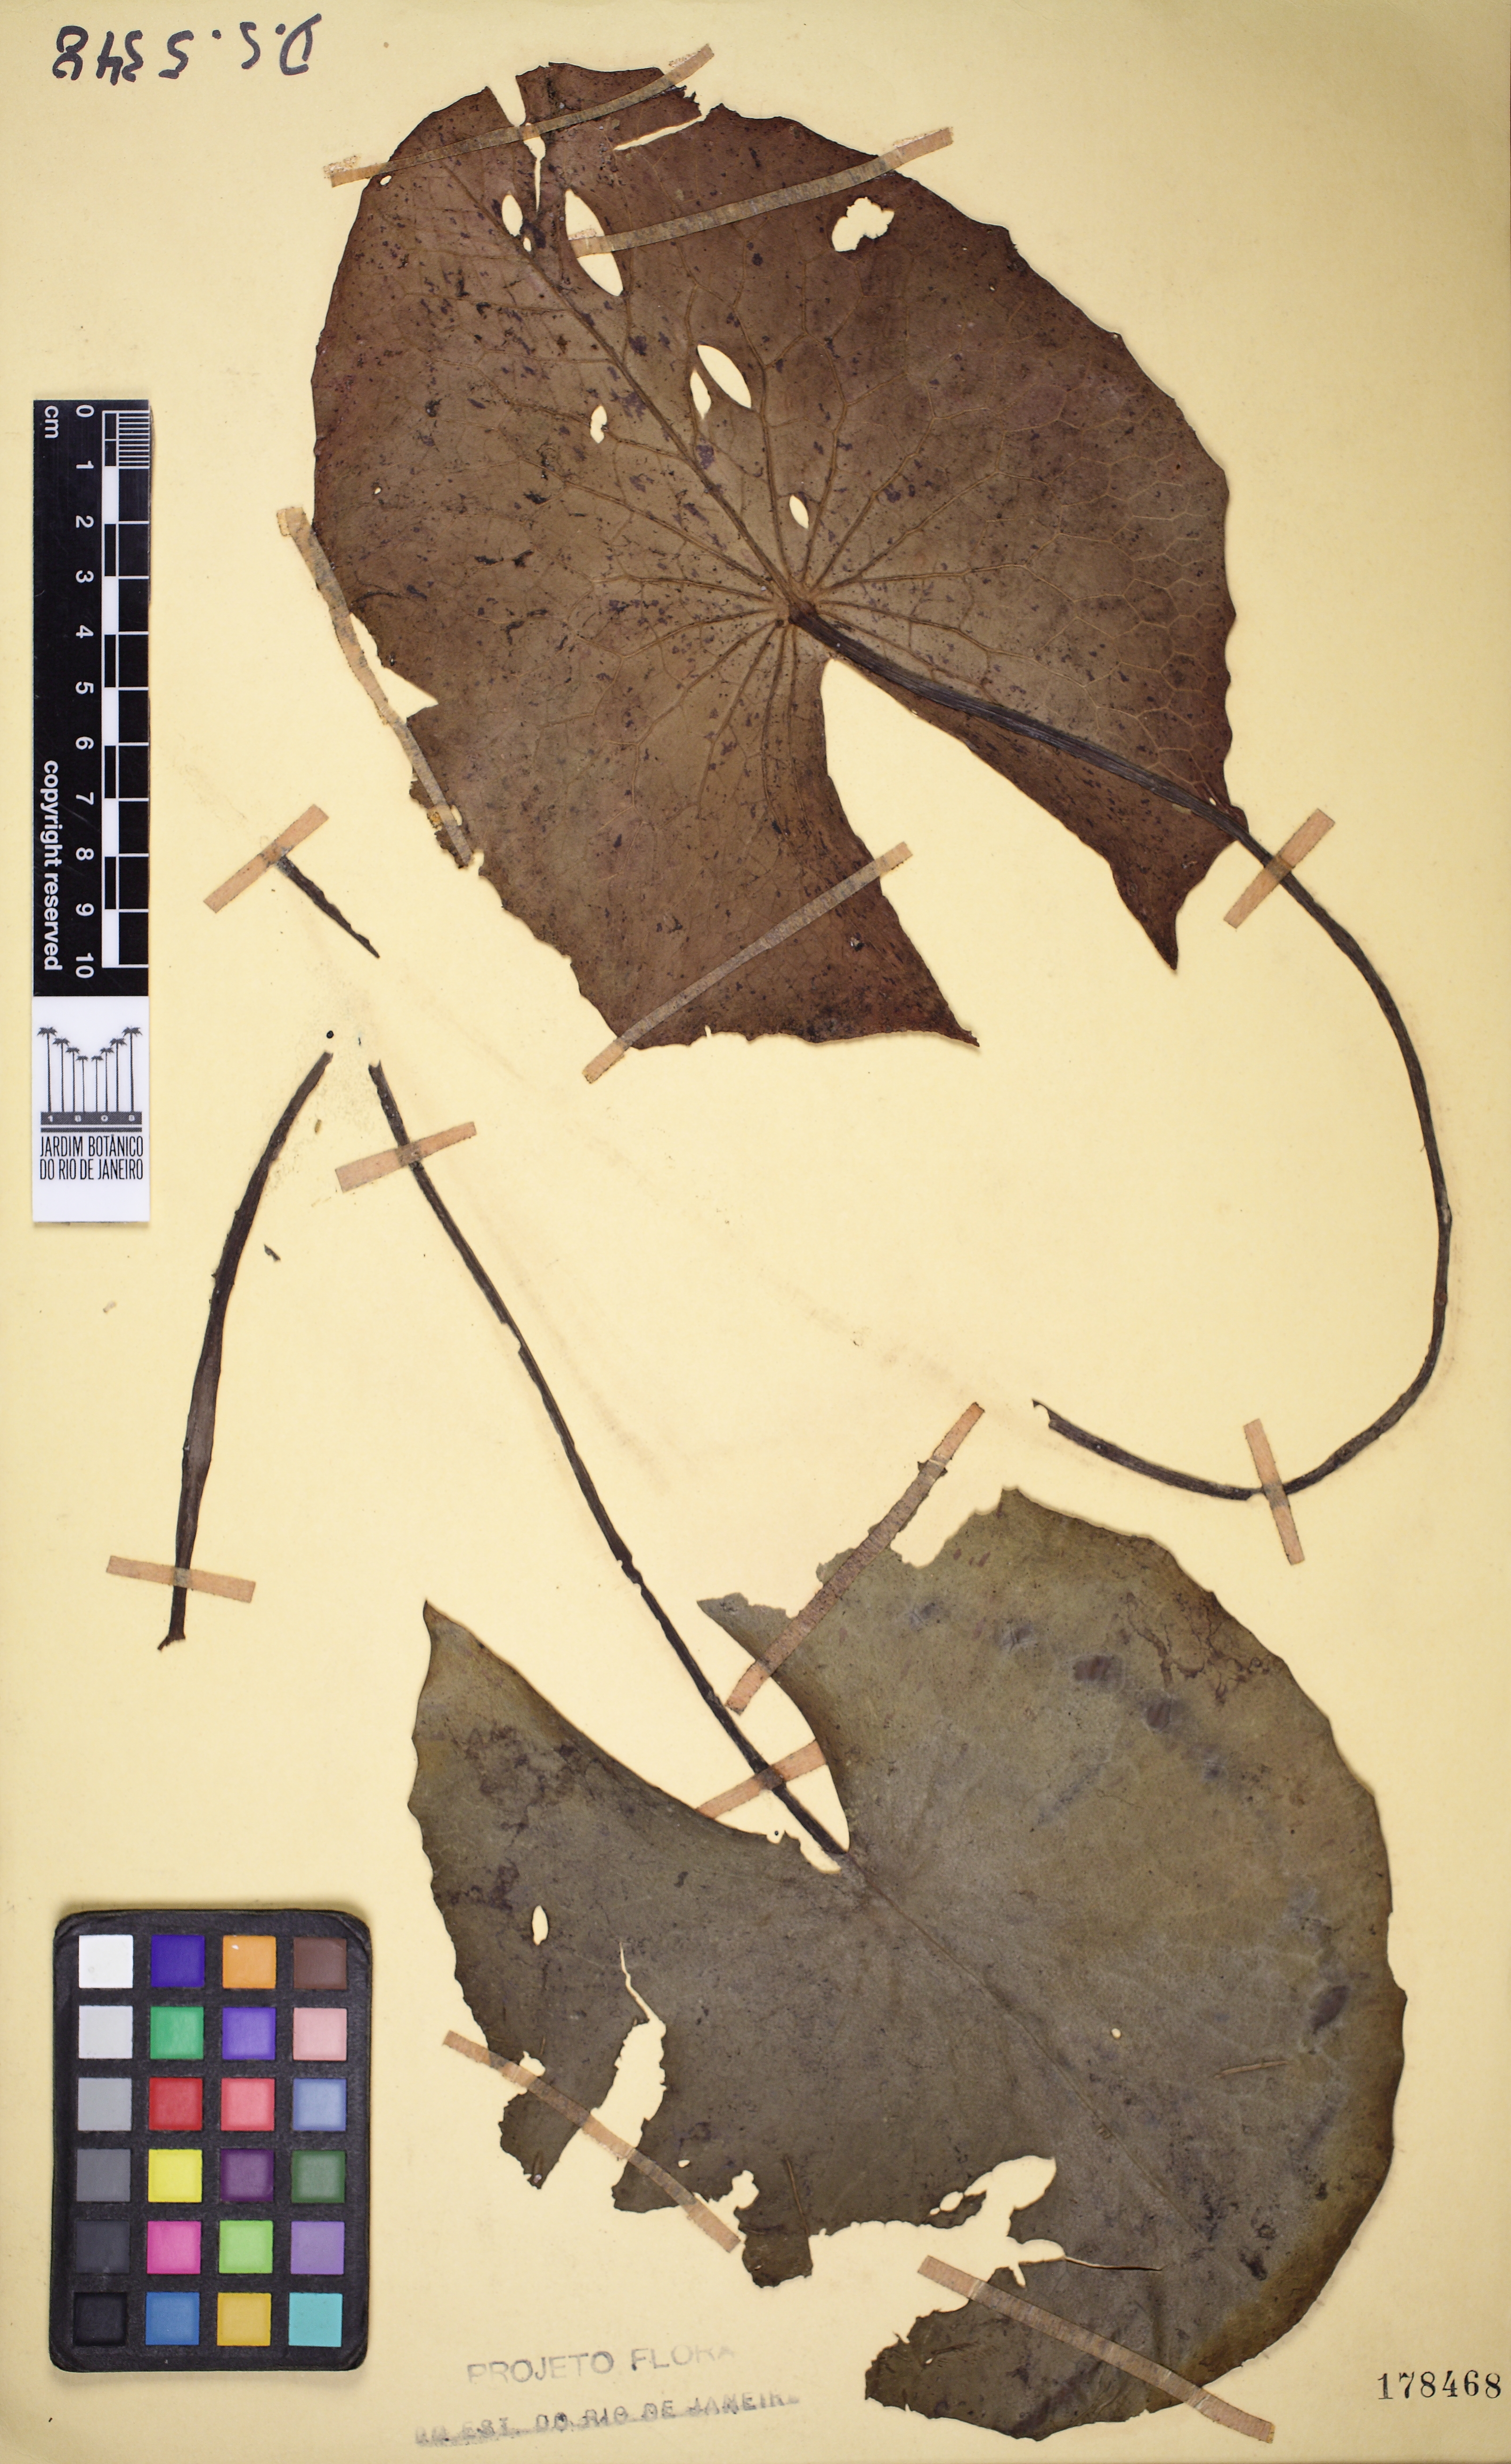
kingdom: Plantae
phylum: Tracheophyta
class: Magnoliopsida
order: Nymphaeales
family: Nymphaeaceae
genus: Nymphaea
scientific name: Nymphaea pulchella
